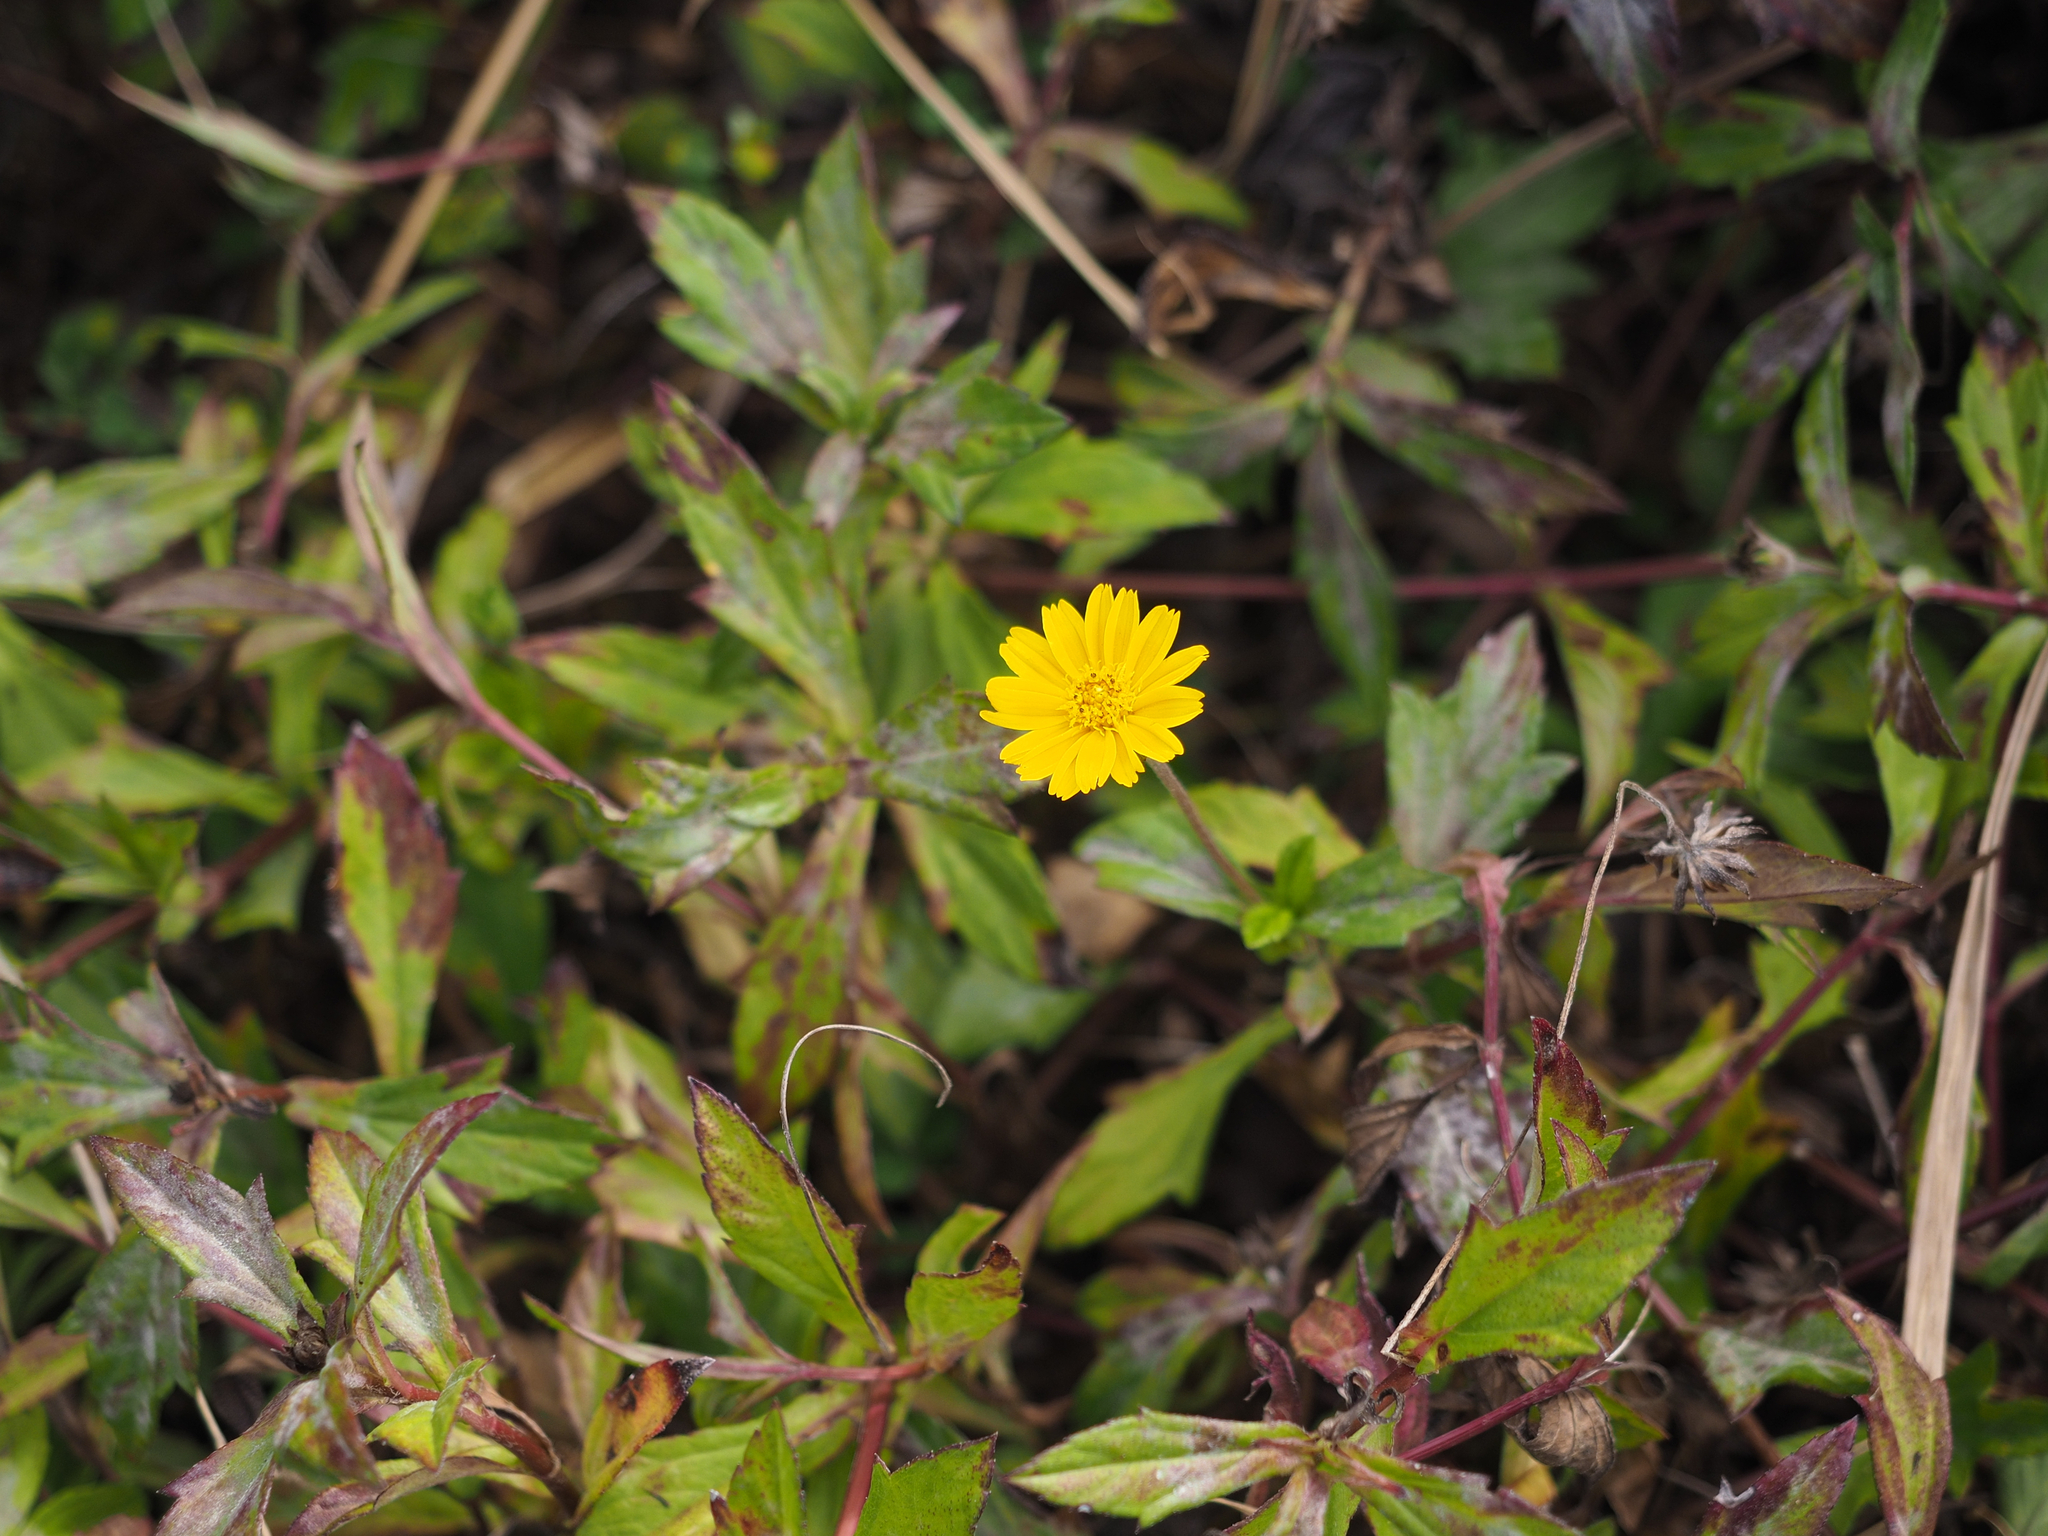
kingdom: Plantae
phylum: Tracheophyta
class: Magnoliopsida
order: Asterales
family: Asteraceae
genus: Sphagneticola
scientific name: Sphagneticola trilobata
